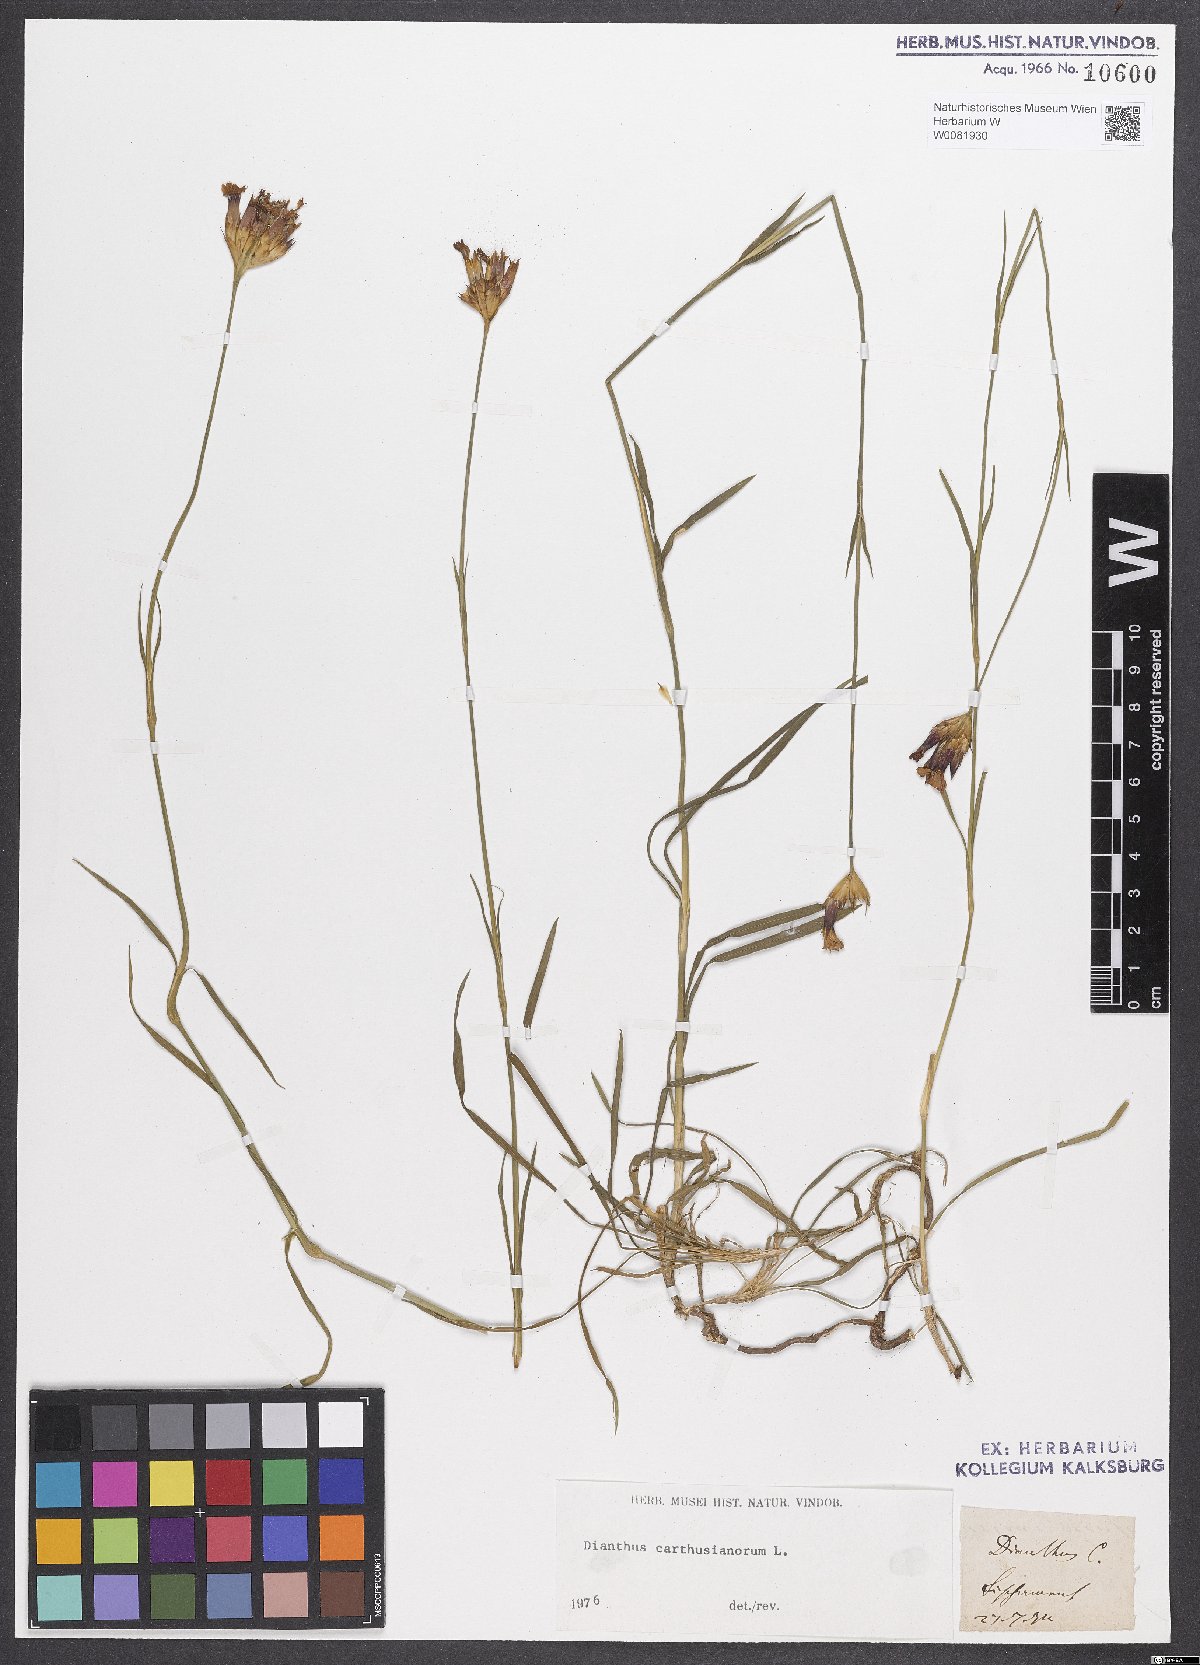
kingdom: Plantae
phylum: Tracheophyta
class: Magnoliopsida
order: Caryophyllales
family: Caryophyllaceae
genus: Dianthus
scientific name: Dianthus carthusianorum
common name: Carthusian pink
